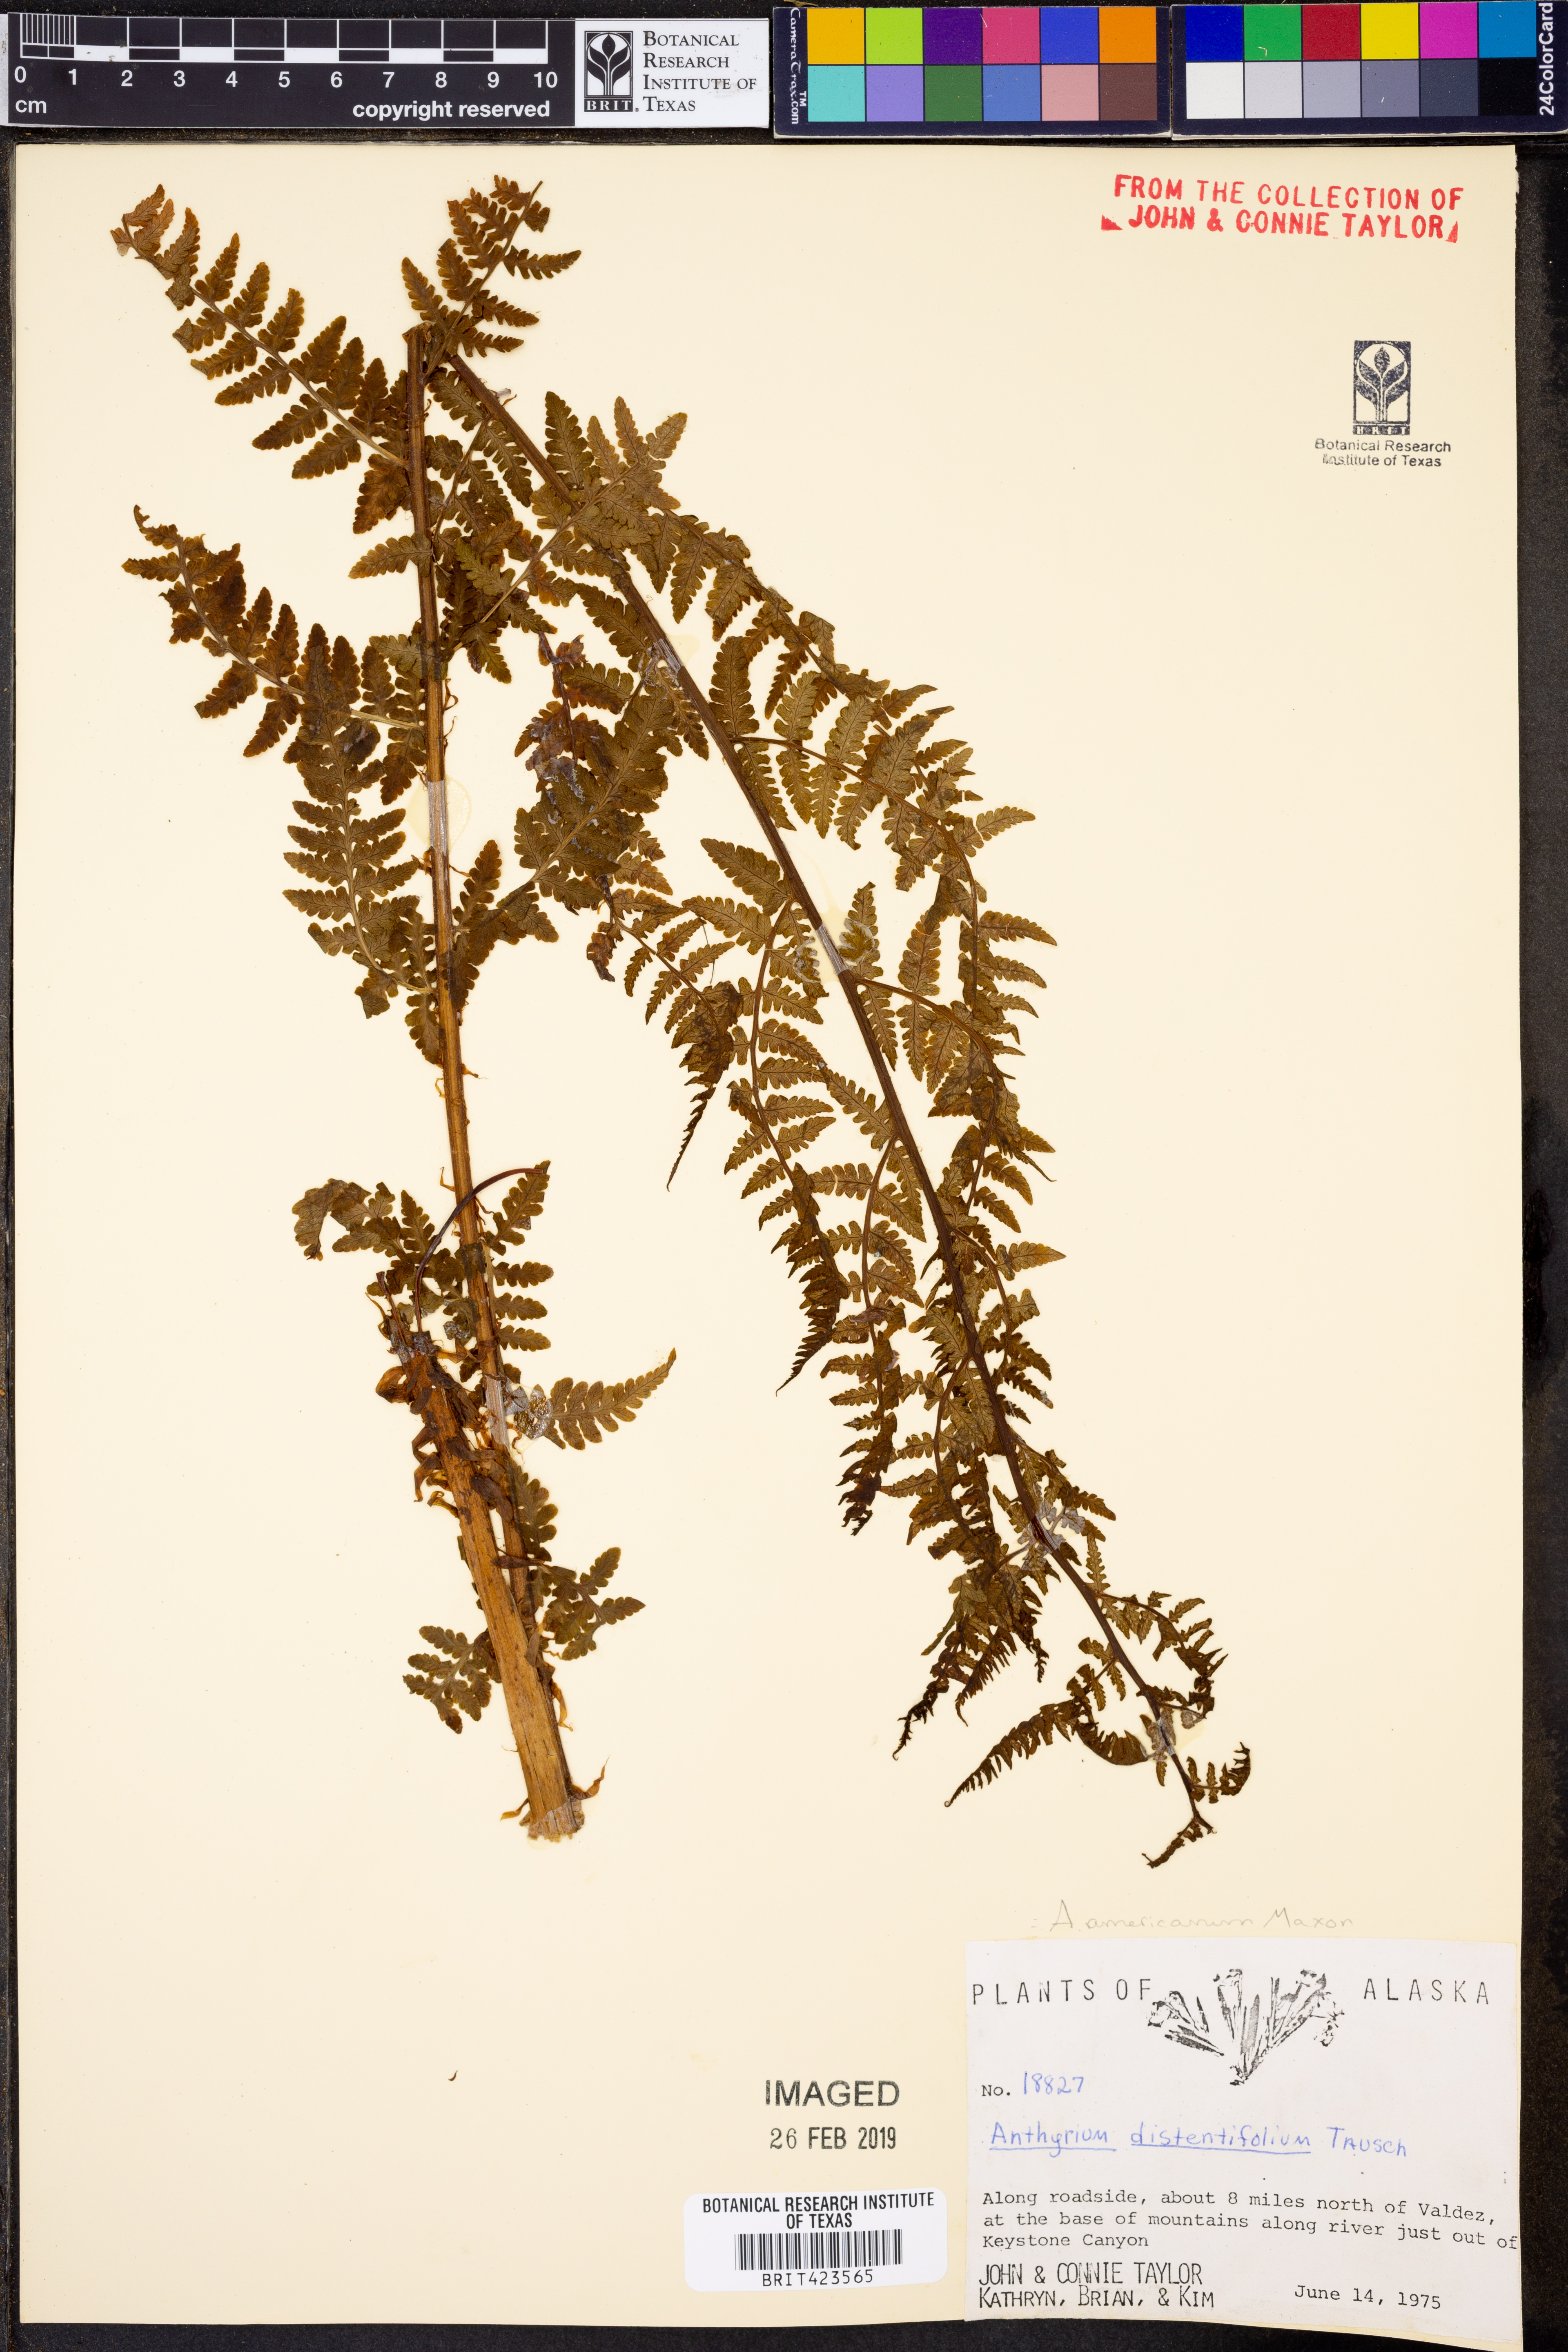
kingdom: Plantae
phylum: Tracheophyta
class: Polypodiopsida
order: Polypodiales
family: Athyriaceae
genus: Athyrium
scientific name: Athyrium americanum
